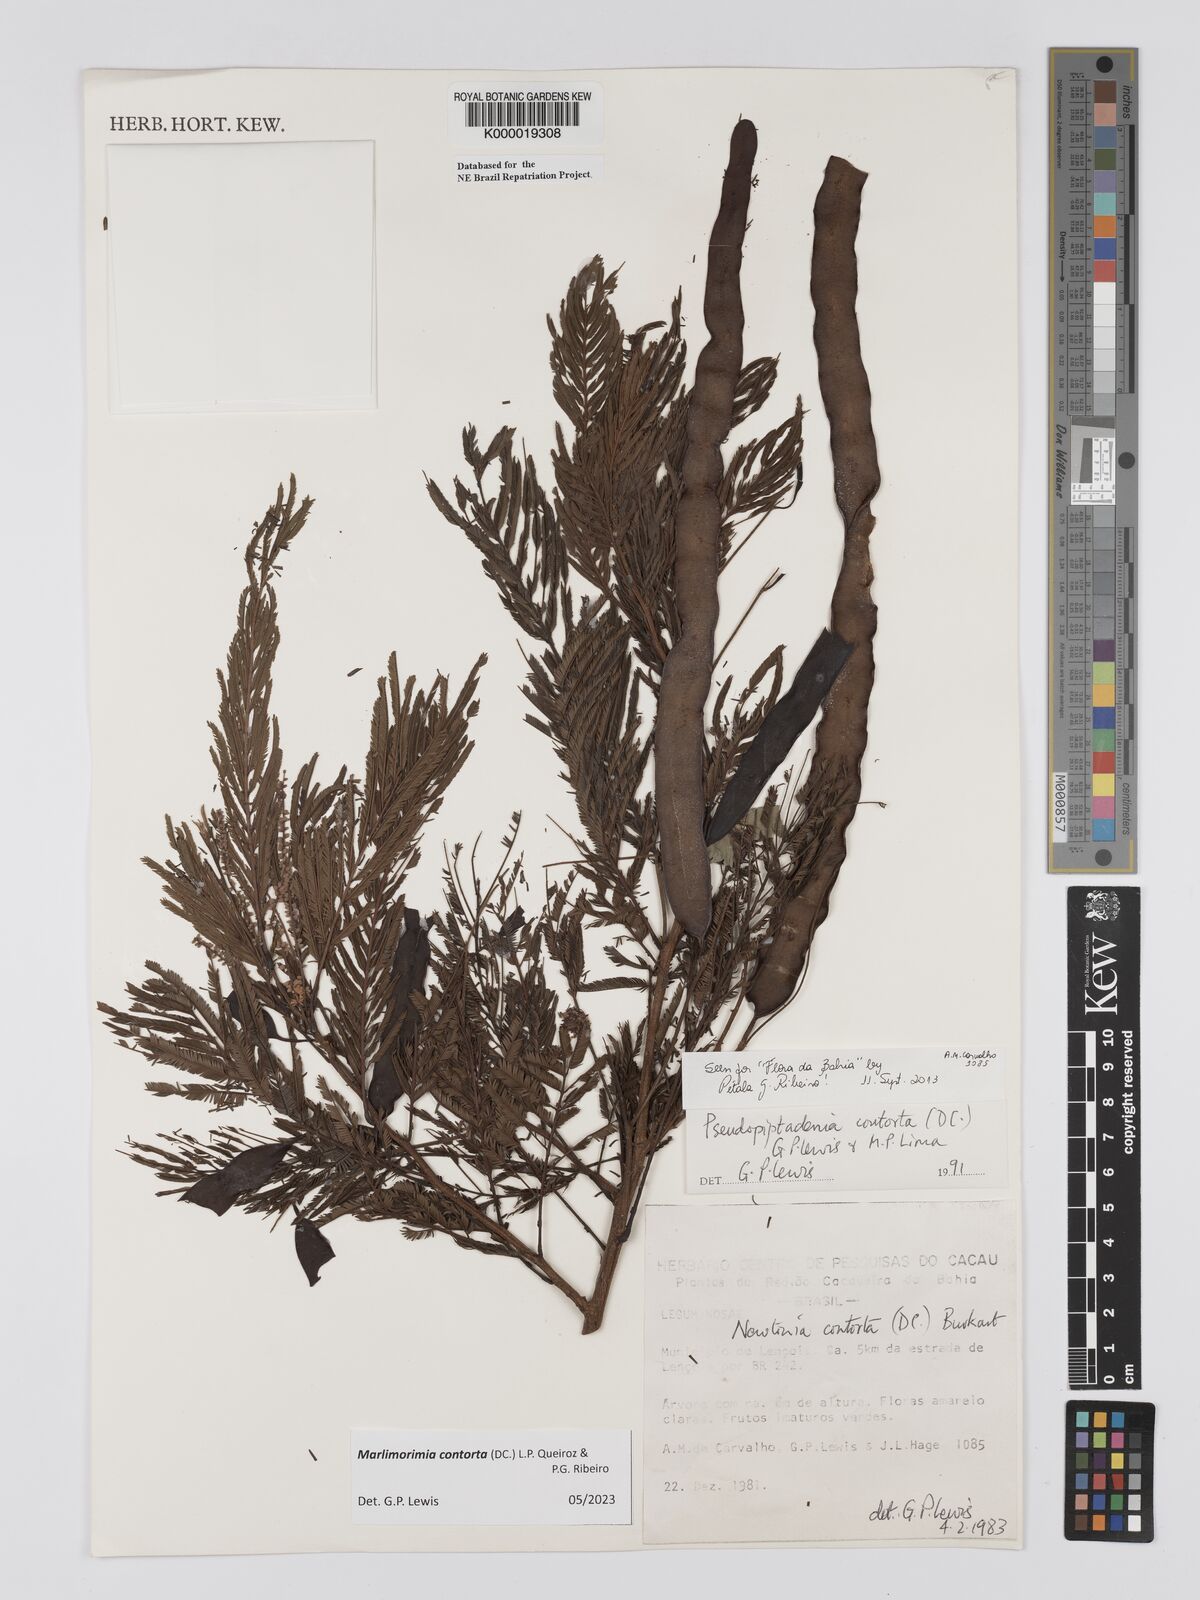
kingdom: Plantae
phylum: Tracheophyta
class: Magnoliopsida
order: Fabales
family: Fabaceae
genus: Pseudopiptadenia
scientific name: Pseudopiptadenia contorta
